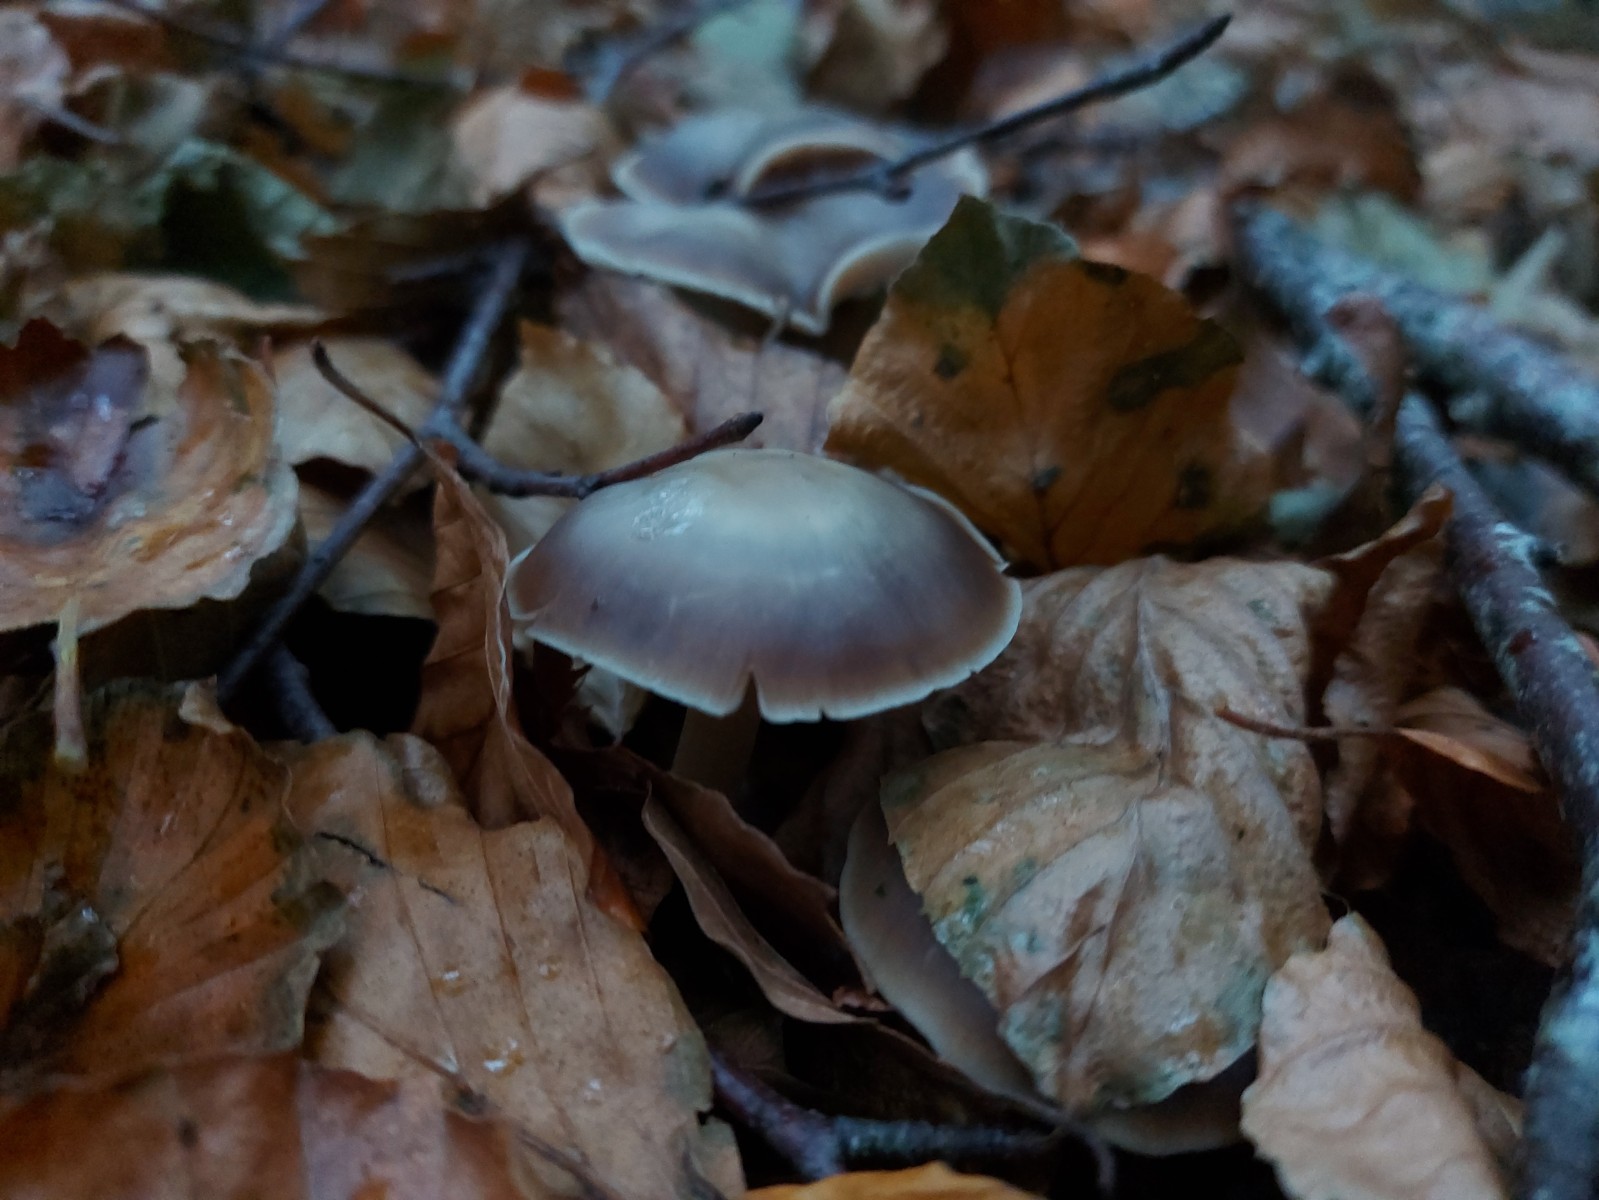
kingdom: Fungi
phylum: Basidiomycota
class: Agaricomycetes
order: Agaricales
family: Omphalotaceae
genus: Rhodocollybia
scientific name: Rhodocollybia asema
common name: horngrå fladhat
